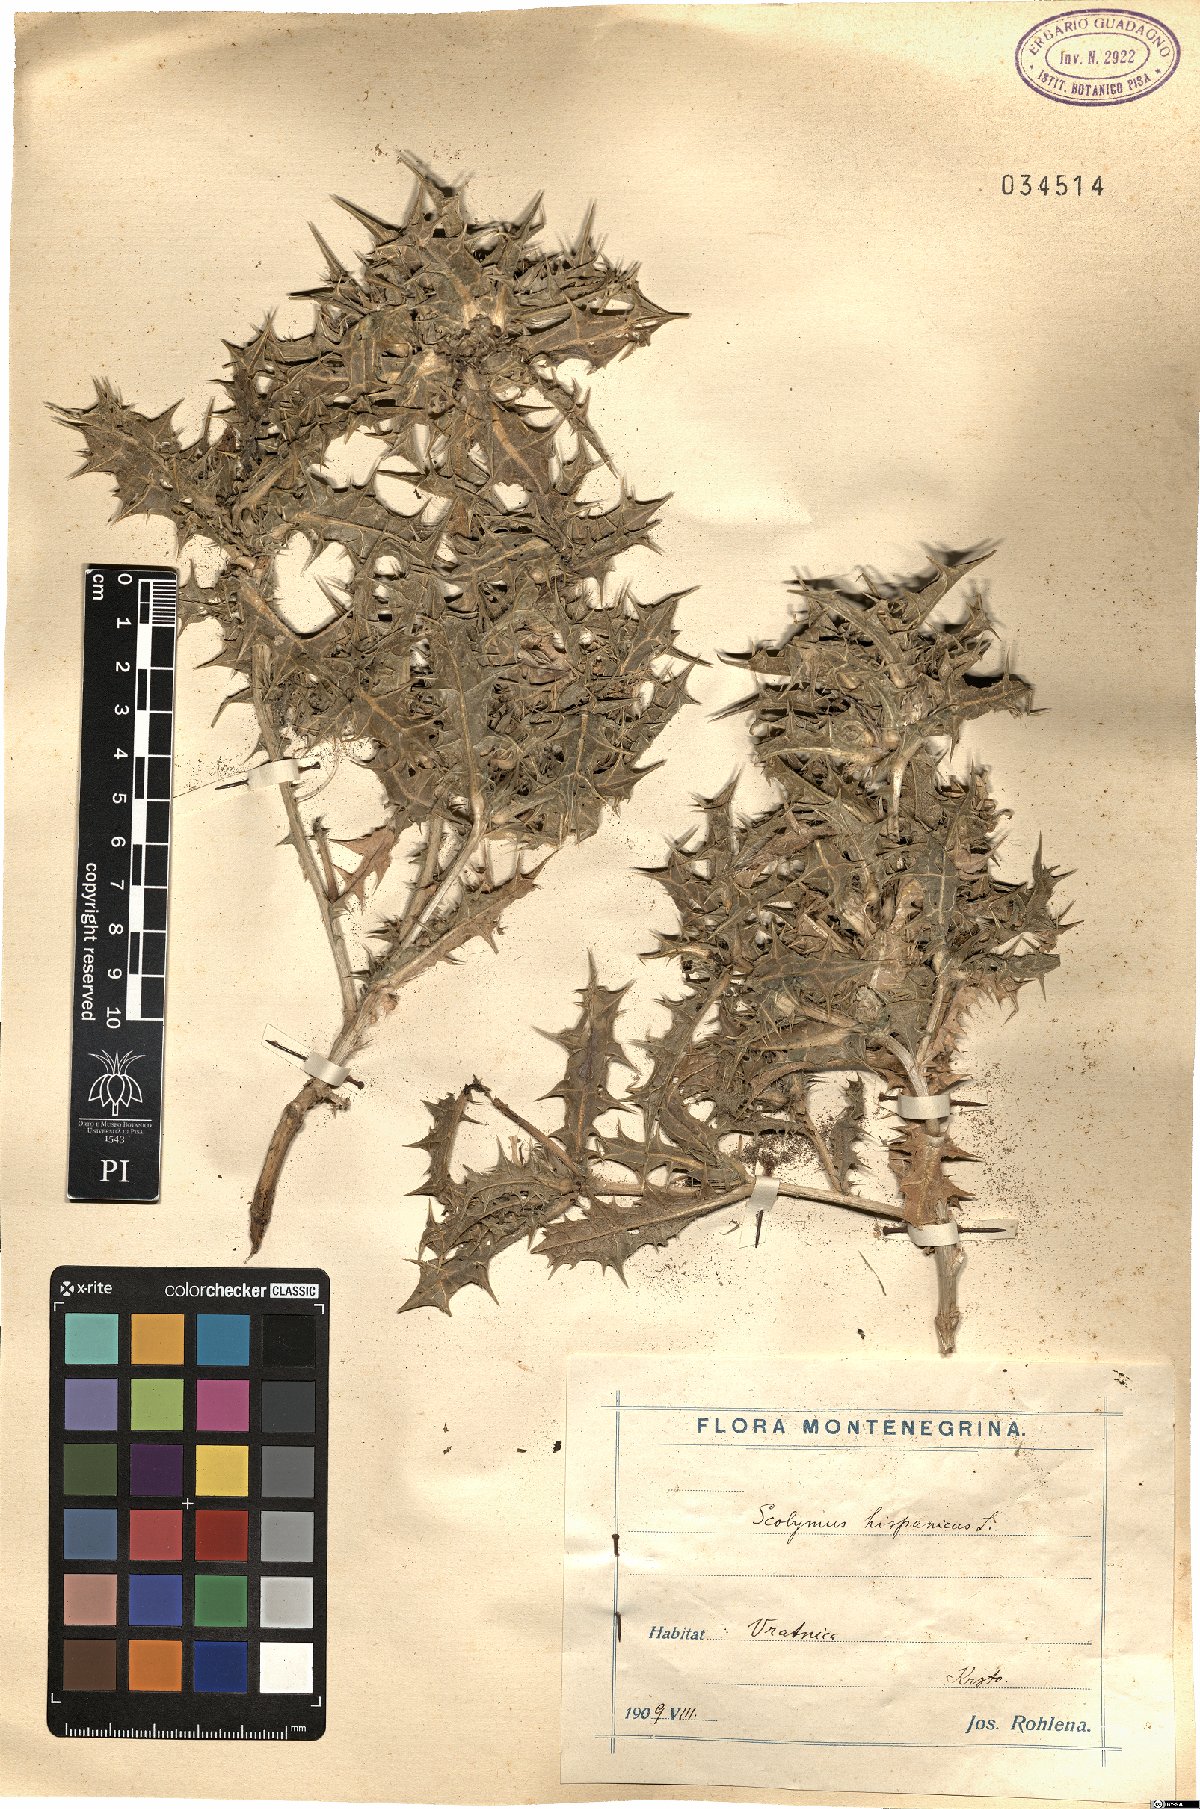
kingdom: Plantae
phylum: Tracheophyta
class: Magnoliopsida
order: Asterales
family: Asteraceae
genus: Scolymus
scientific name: Scolymus hispanicus
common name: Golden thistle
